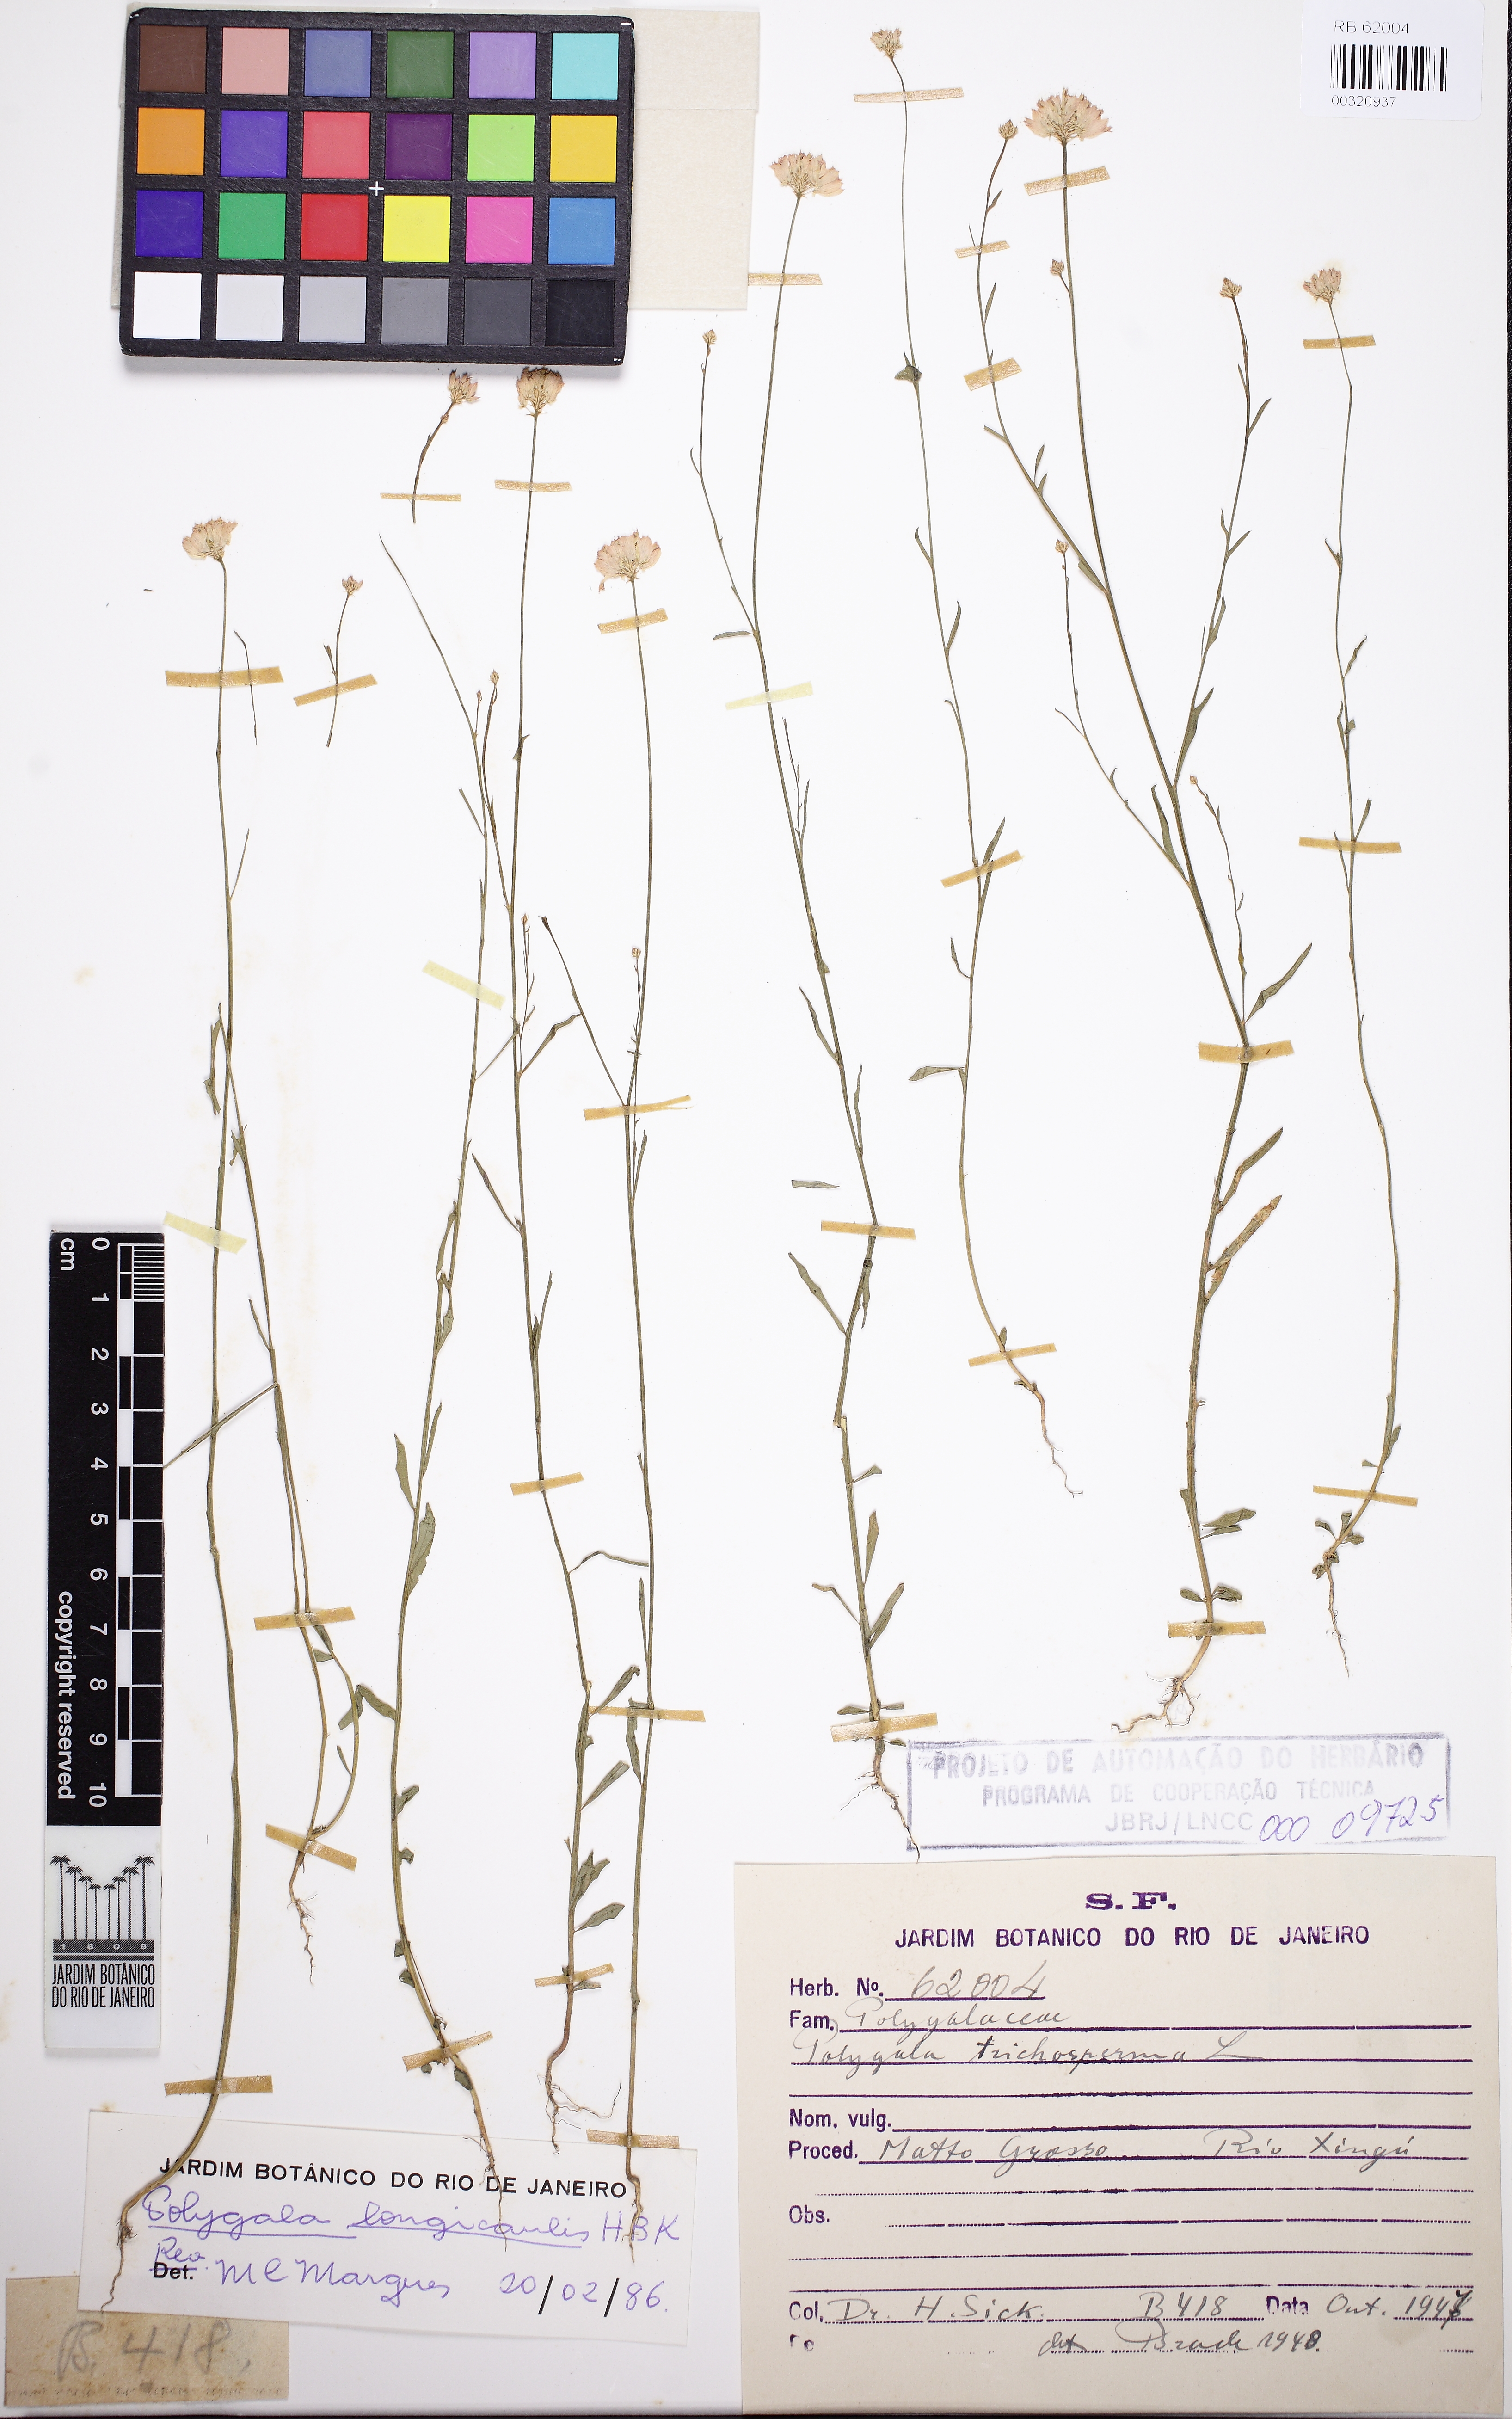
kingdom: Plantae
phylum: Tracheophyta
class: Magnoliopsida
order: Fabales
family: Polygalaceae
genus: Polygala
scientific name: Polygala longicaulis
